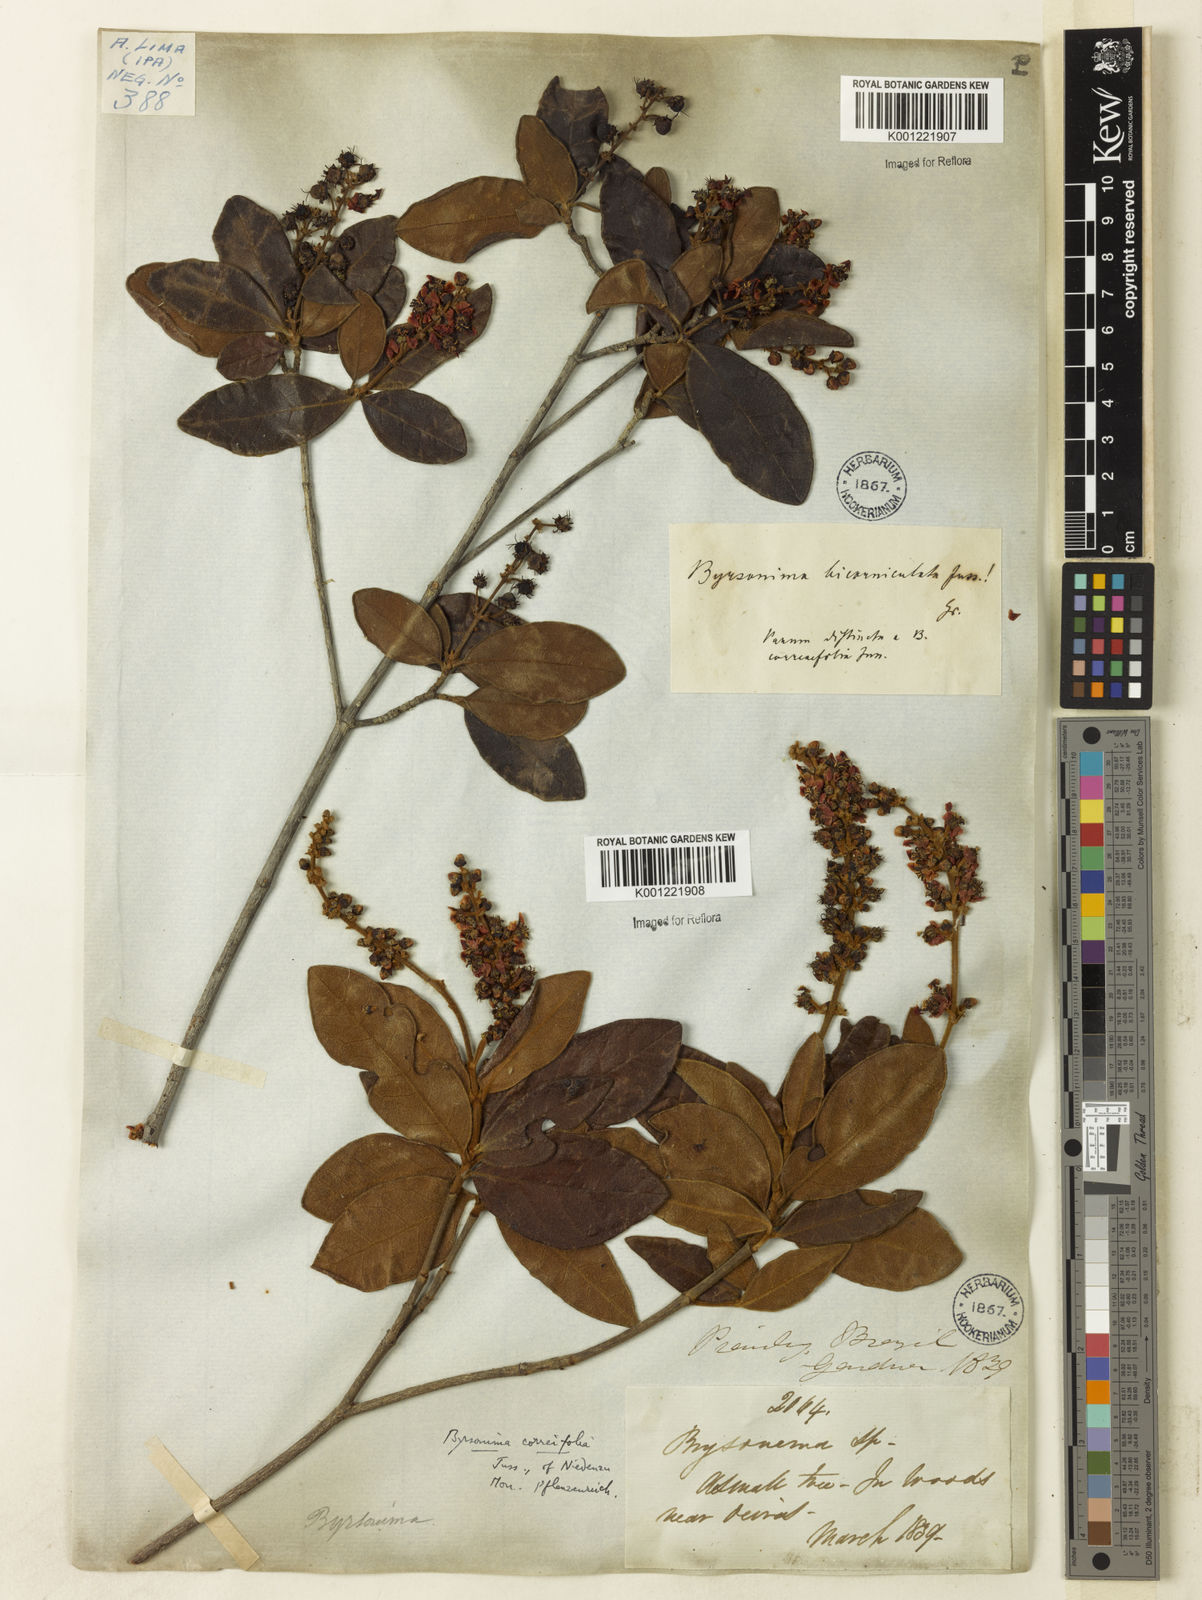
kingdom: Plantae
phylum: Tracheophyta
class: Magnoliopsida
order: Malpighiales
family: Malpighiaceae
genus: Byrsonima
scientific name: Byrsonima correifolia
